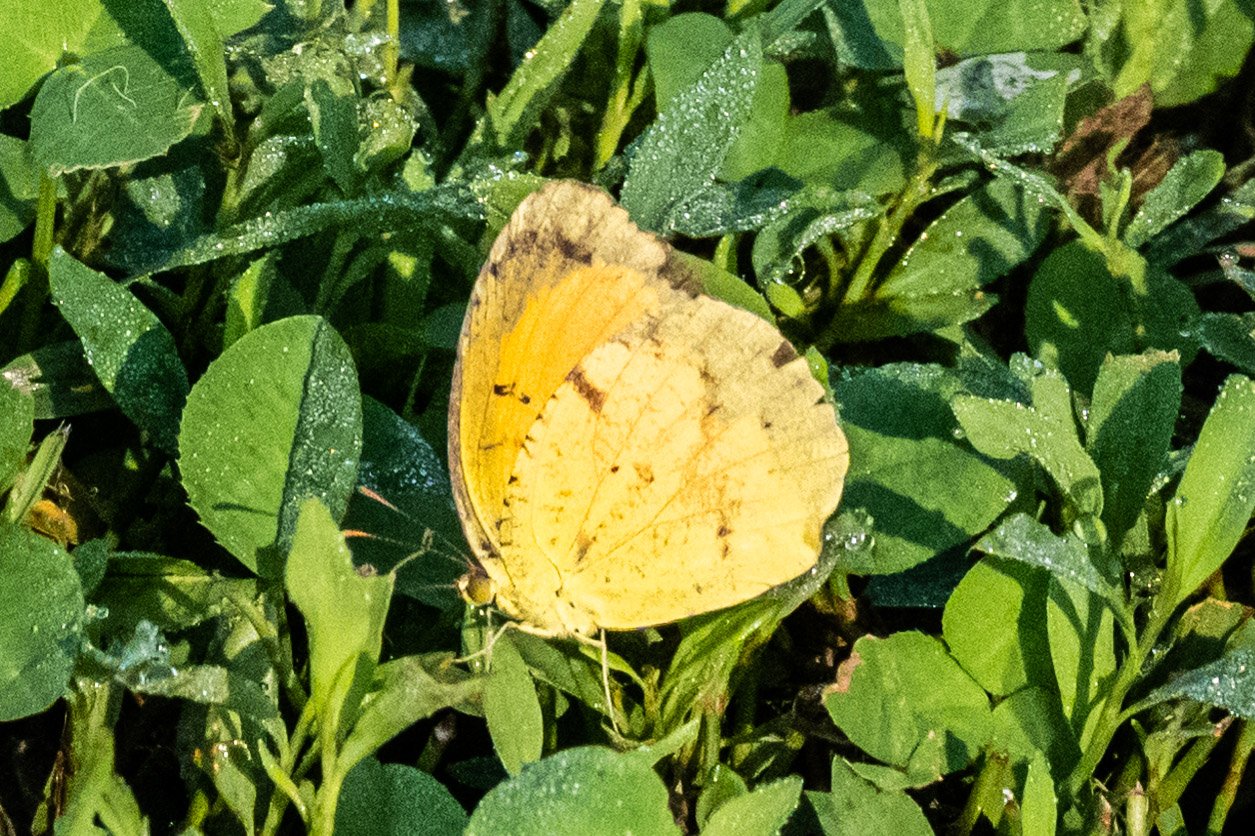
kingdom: Animalia
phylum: Arthropoda
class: Insecta
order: Lepidoptera
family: Pieridae
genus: Abaeis
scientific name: Abaeis nicippe
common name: Sleepy Orange
